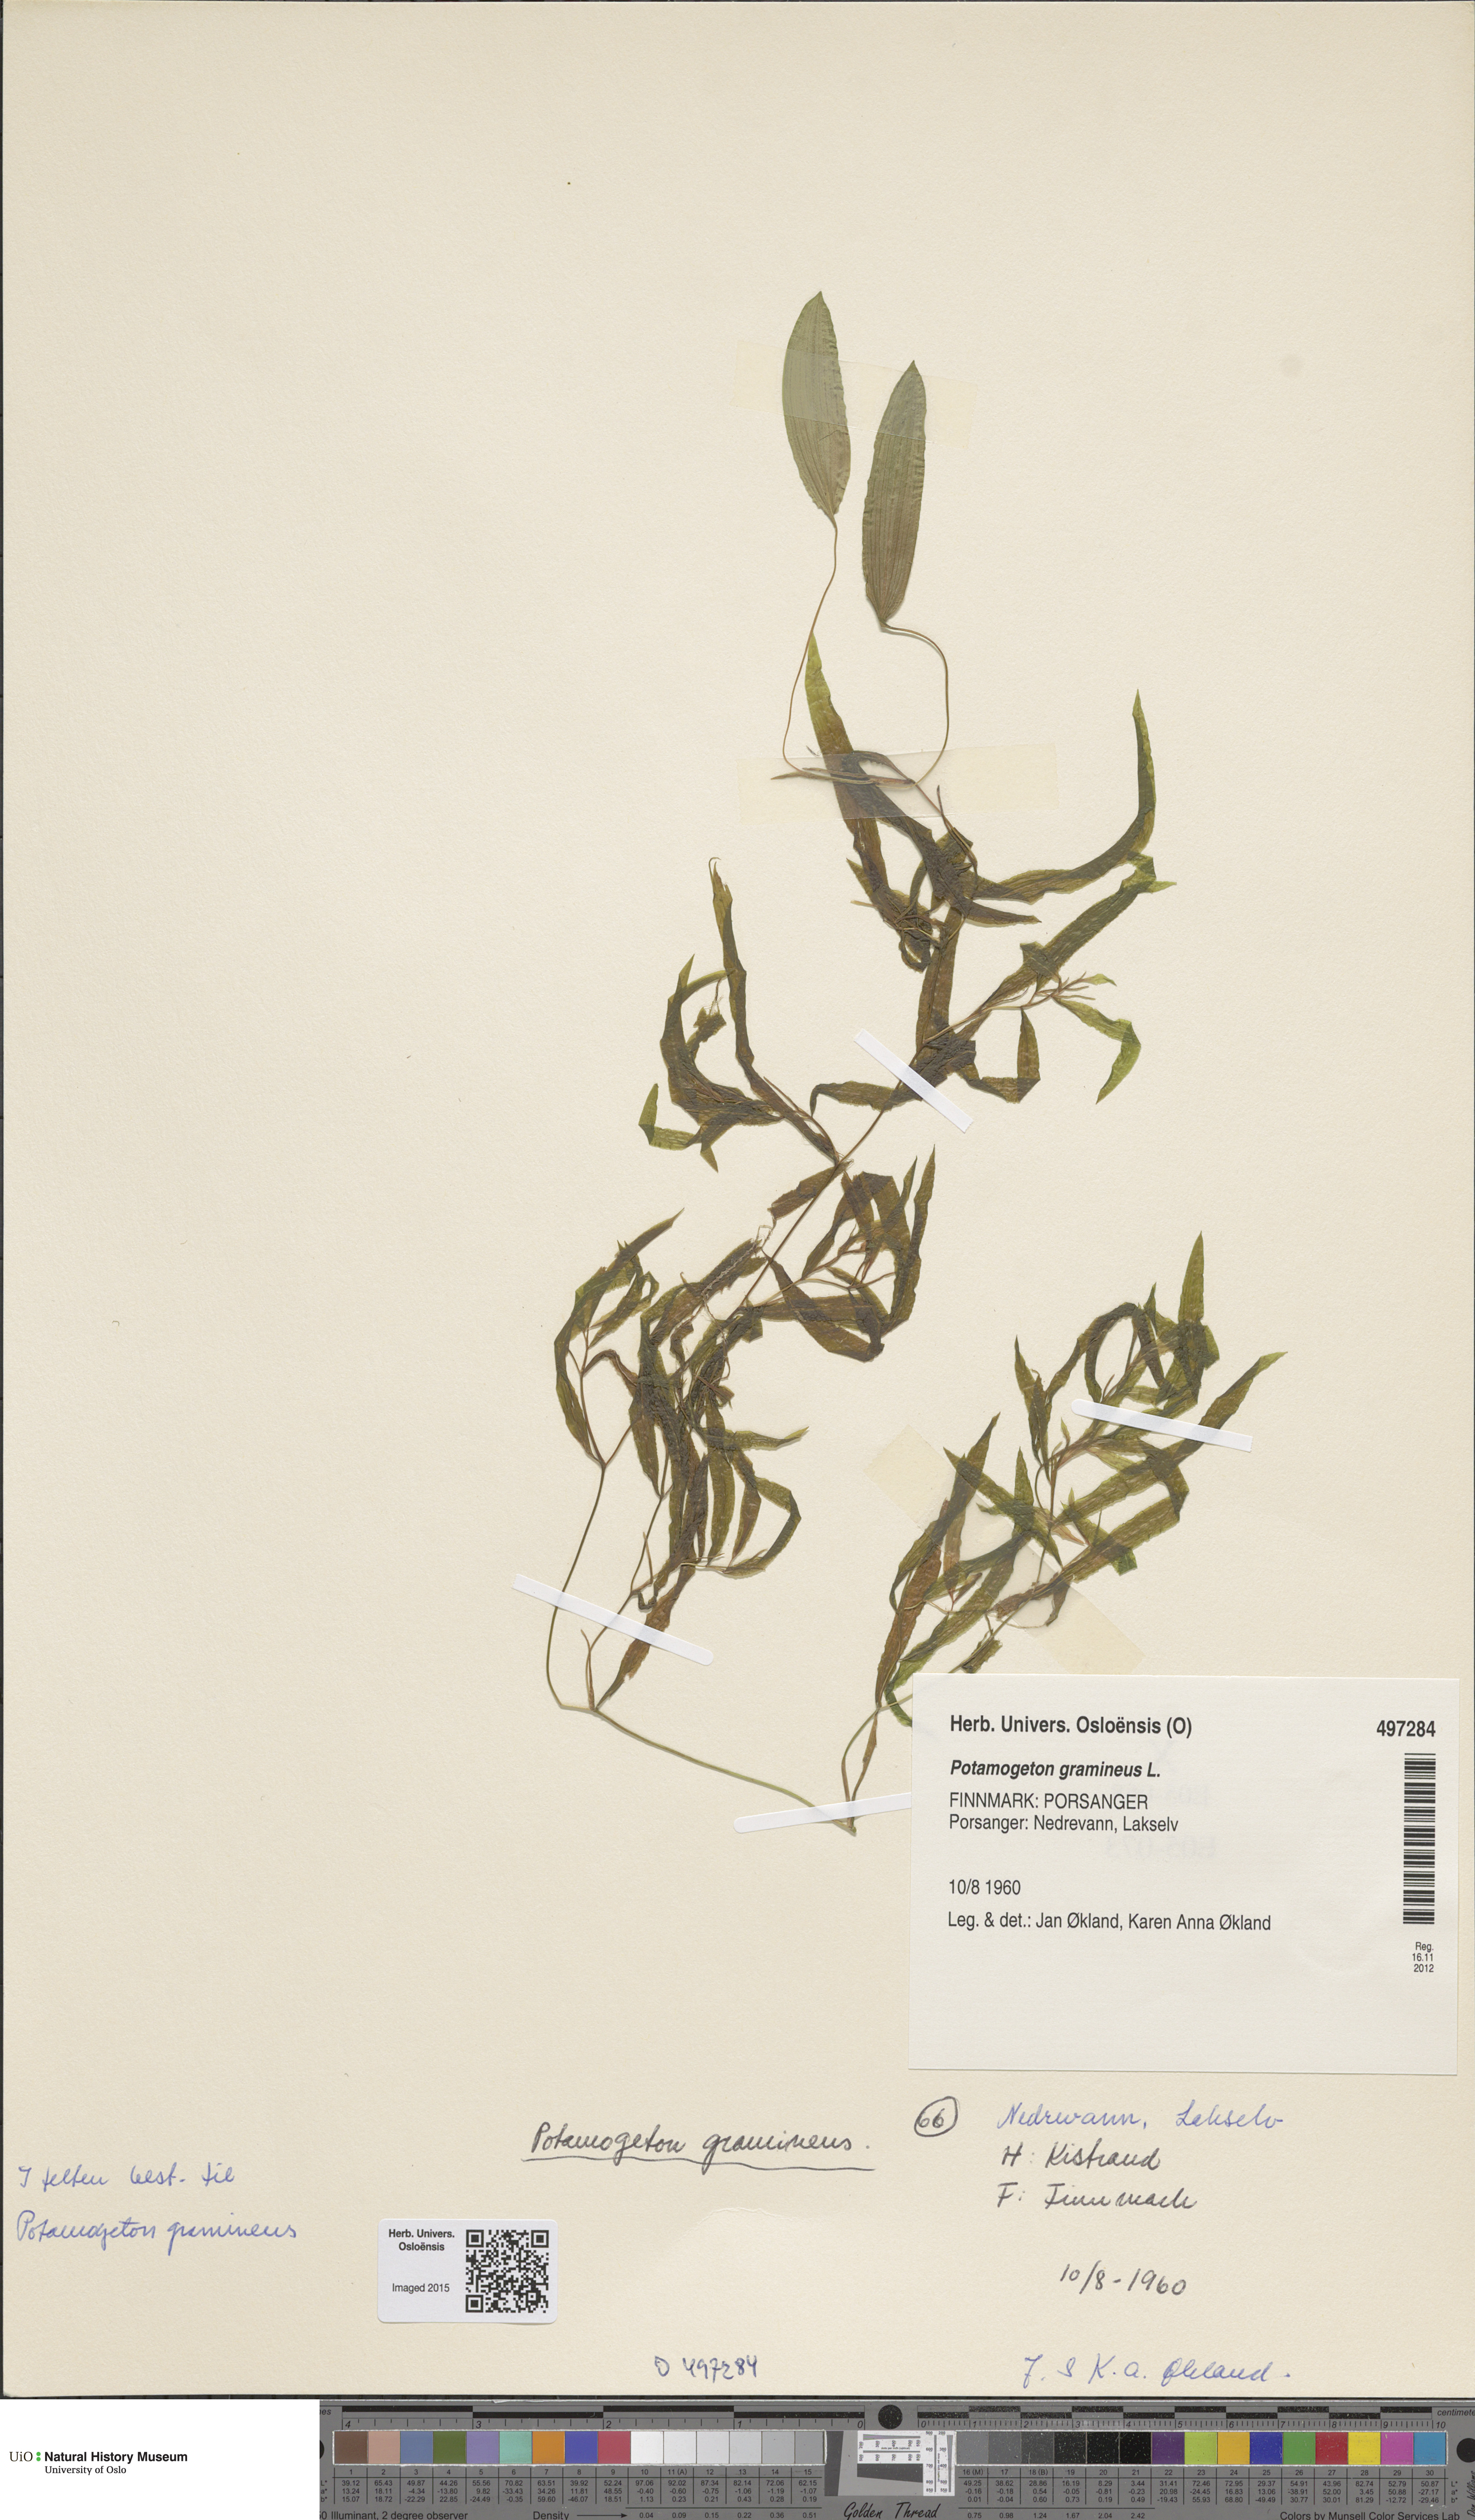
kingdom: Plantae
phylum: Tracheophyta
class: Liliopsida
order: Alismatales
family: Potamogetonaceae
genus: Potamogeton
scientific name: Potamogeton gramineus
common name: Various-leaved pondweed
